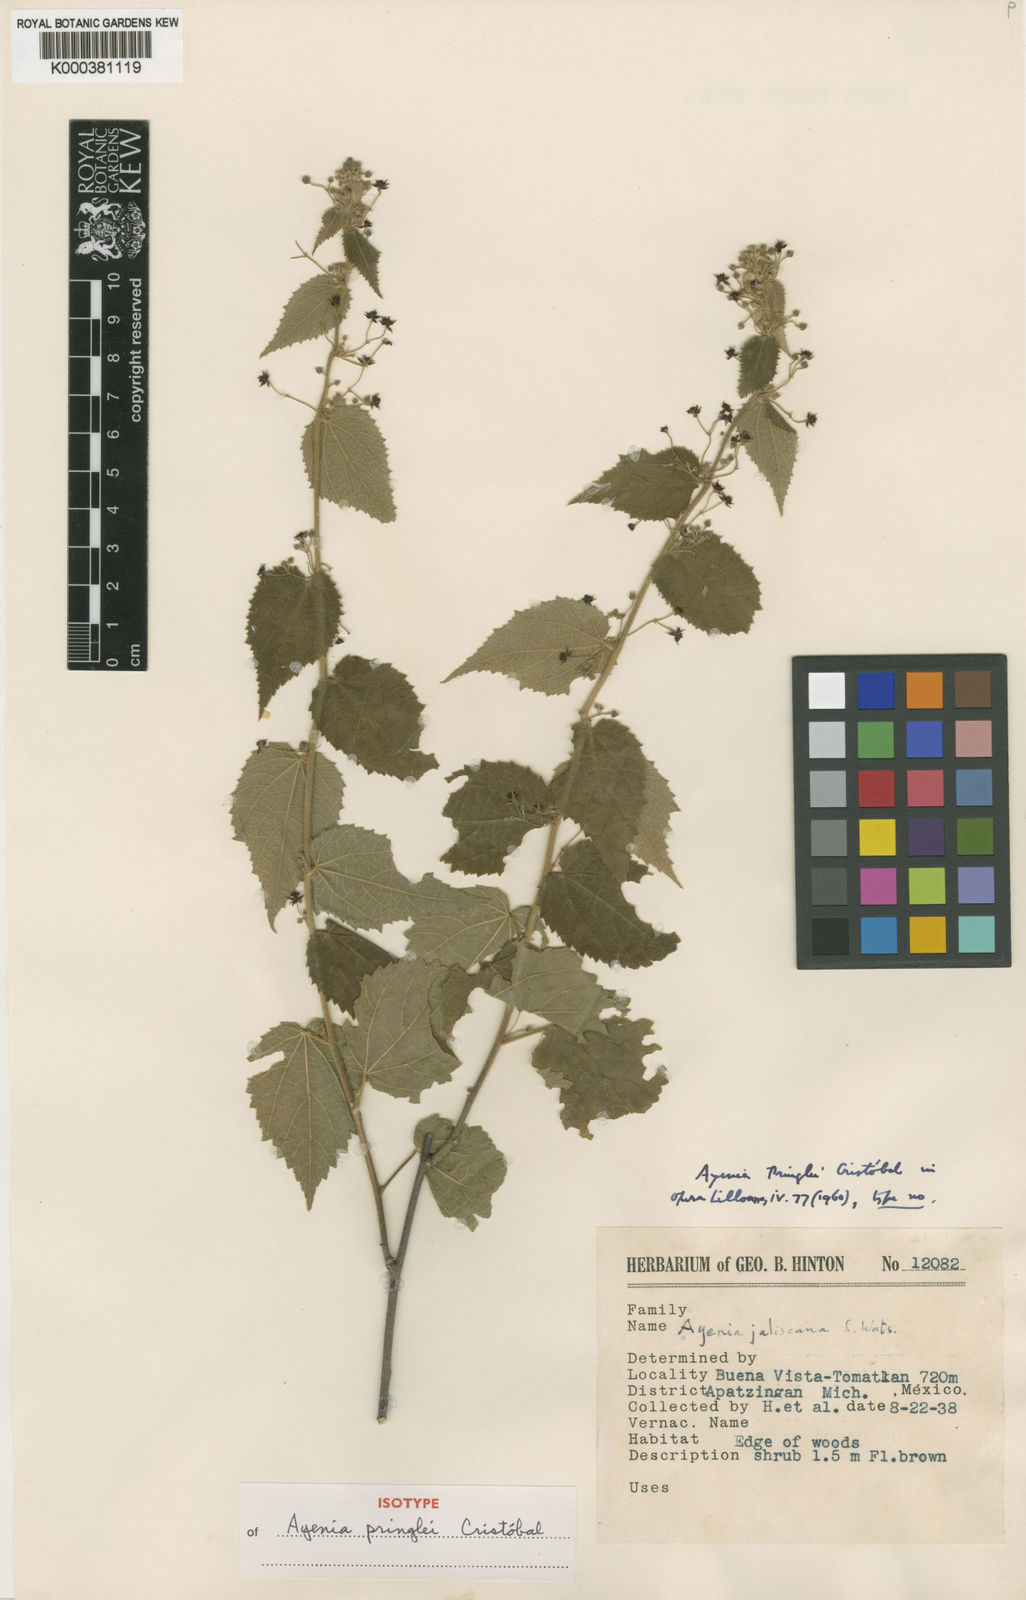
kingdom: Plantae
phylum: Tracheophyta
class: Magnoliopsida
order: Malvales
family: Malvaceae
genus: Ayenia
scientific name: Ayenia
